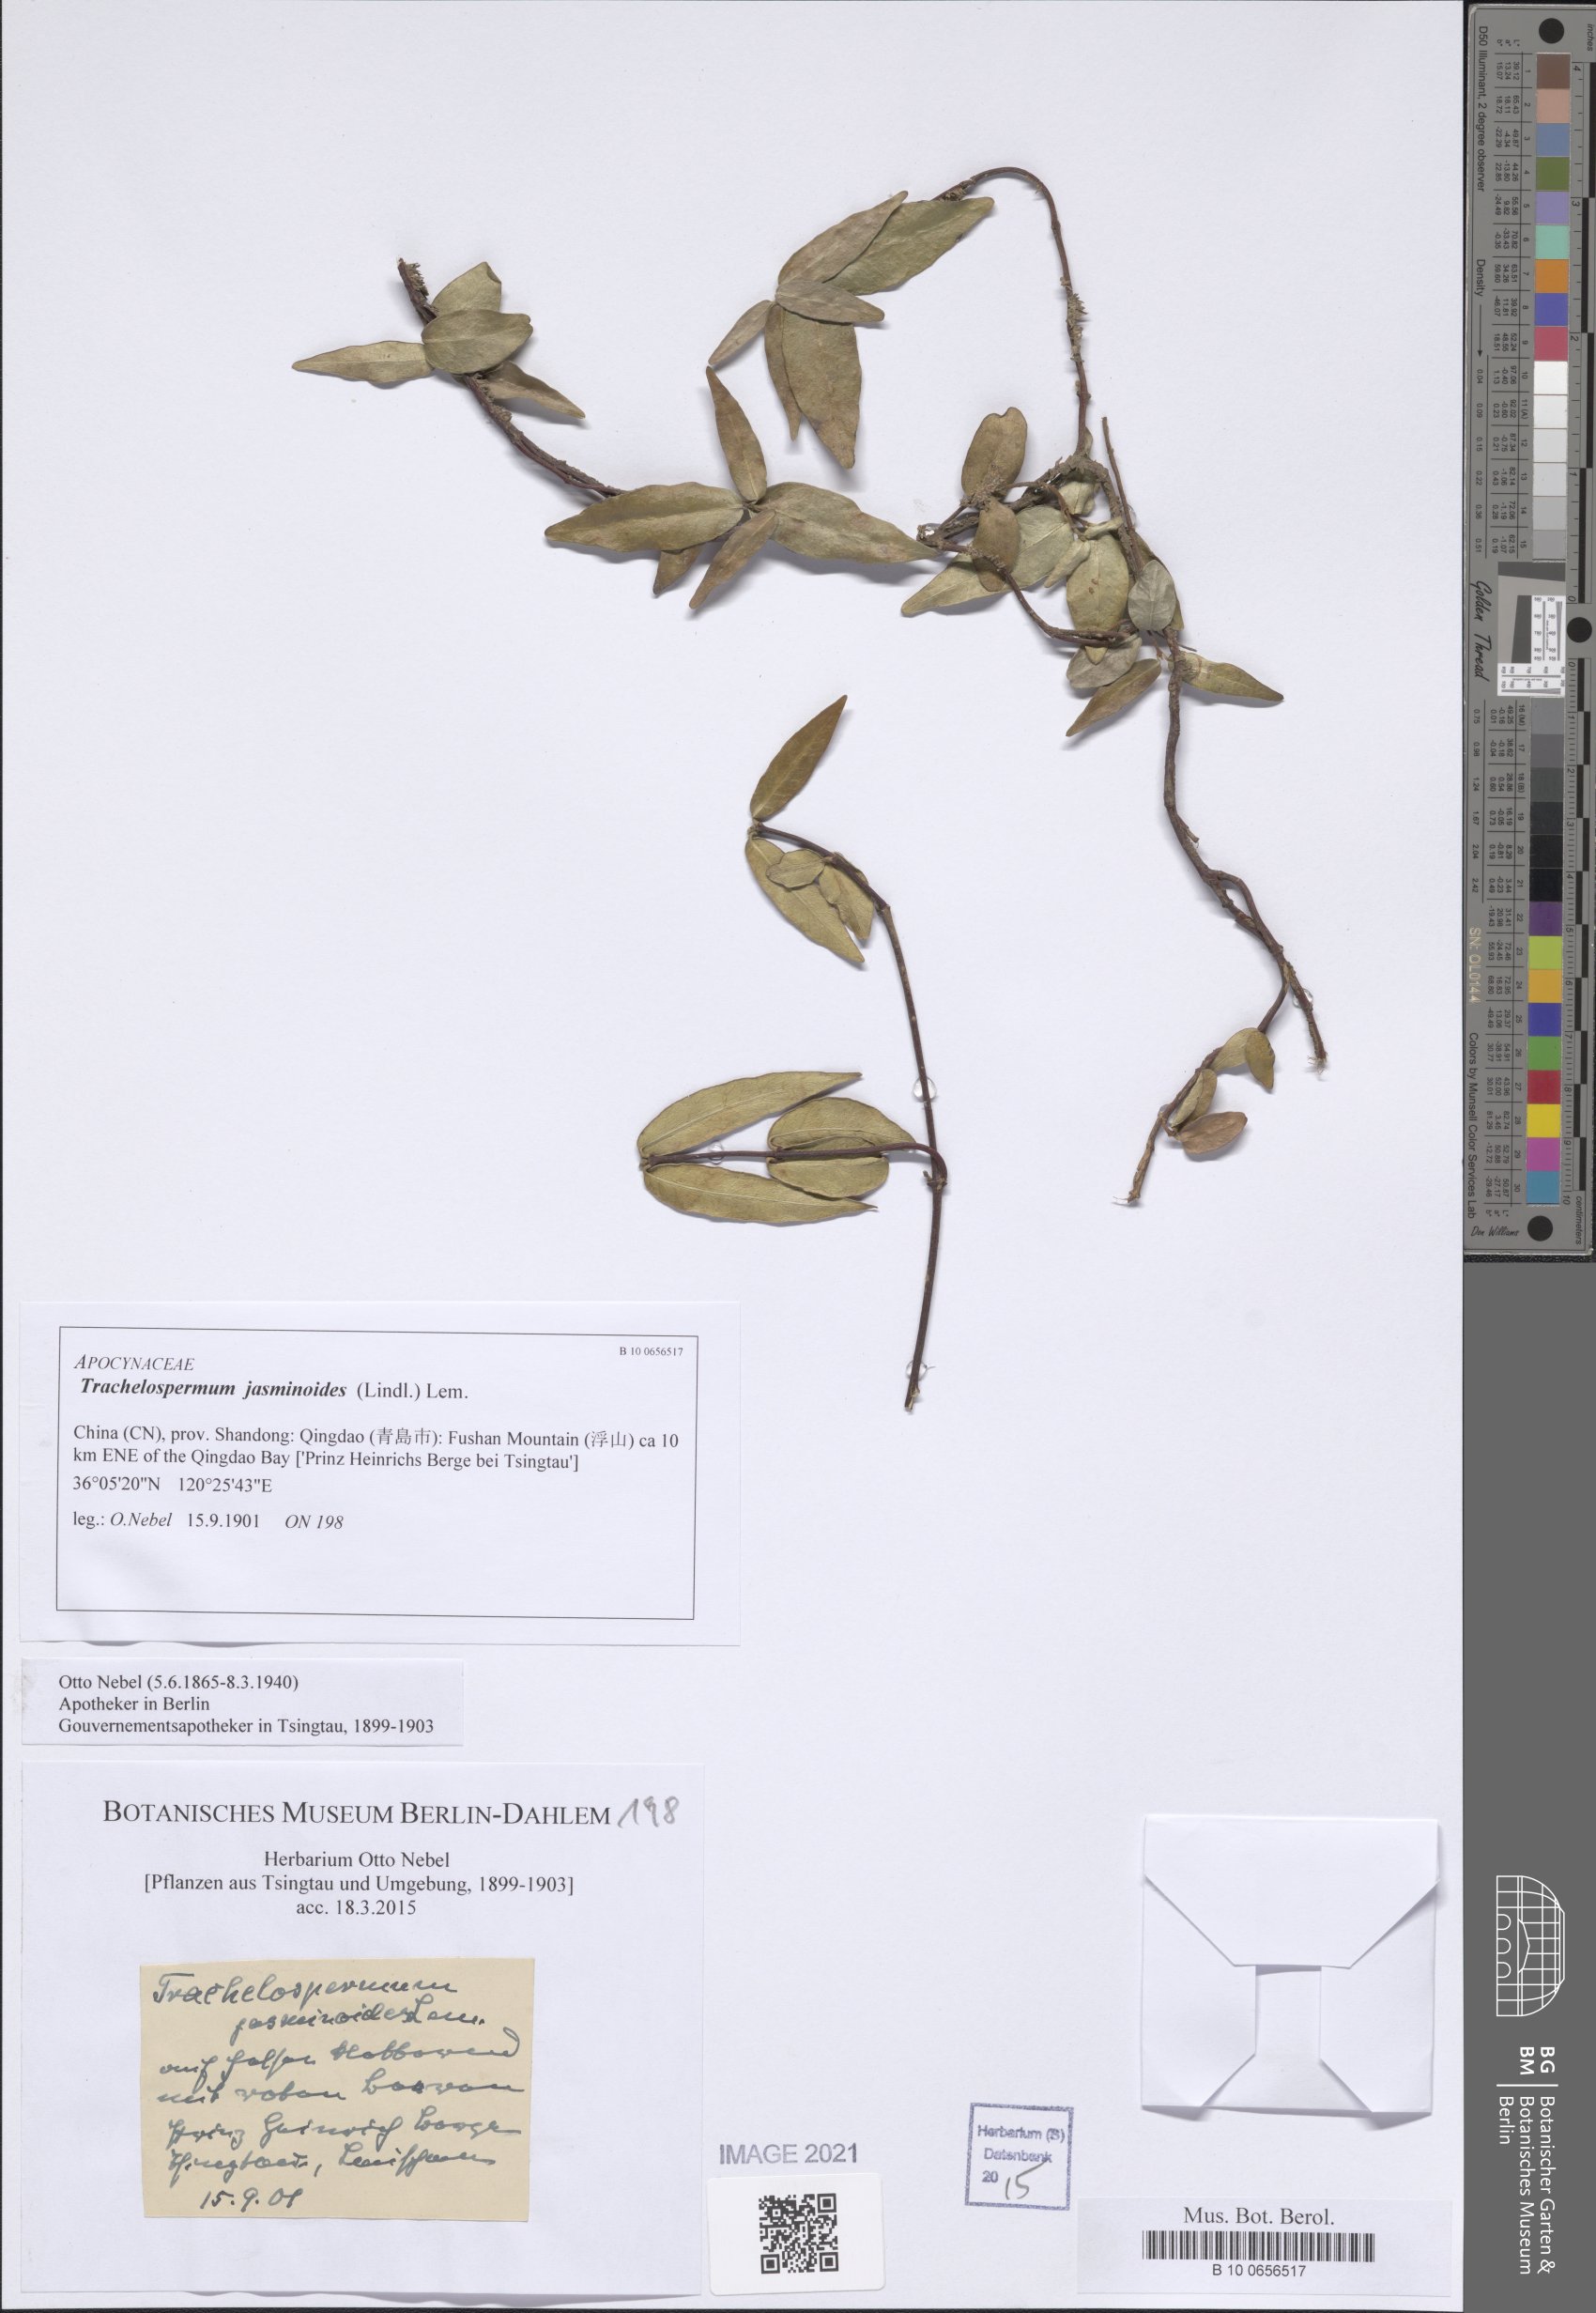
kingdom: Plantae
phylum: Tracheophyta
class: Magnoliopsida
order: Gentianales
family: Apocynaceae
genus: Trachelospermum
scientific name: Trachelospermum jasminoides
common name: Confederate jasmine
